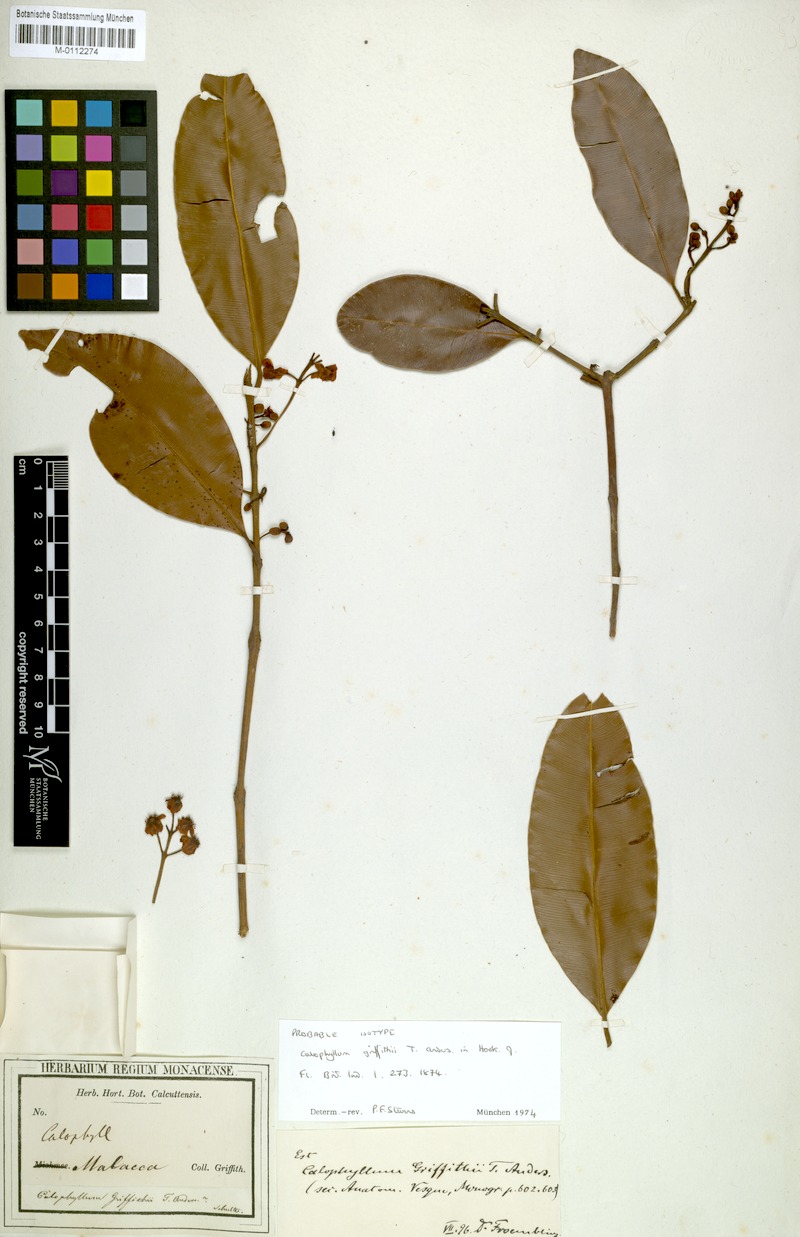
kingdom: Plantae
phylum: Tracheophyta
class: Magnoliopsida
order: Malpighiales
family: Calophyllaceae
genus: Calophyllum
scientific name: Calophyllum tetrapterum
